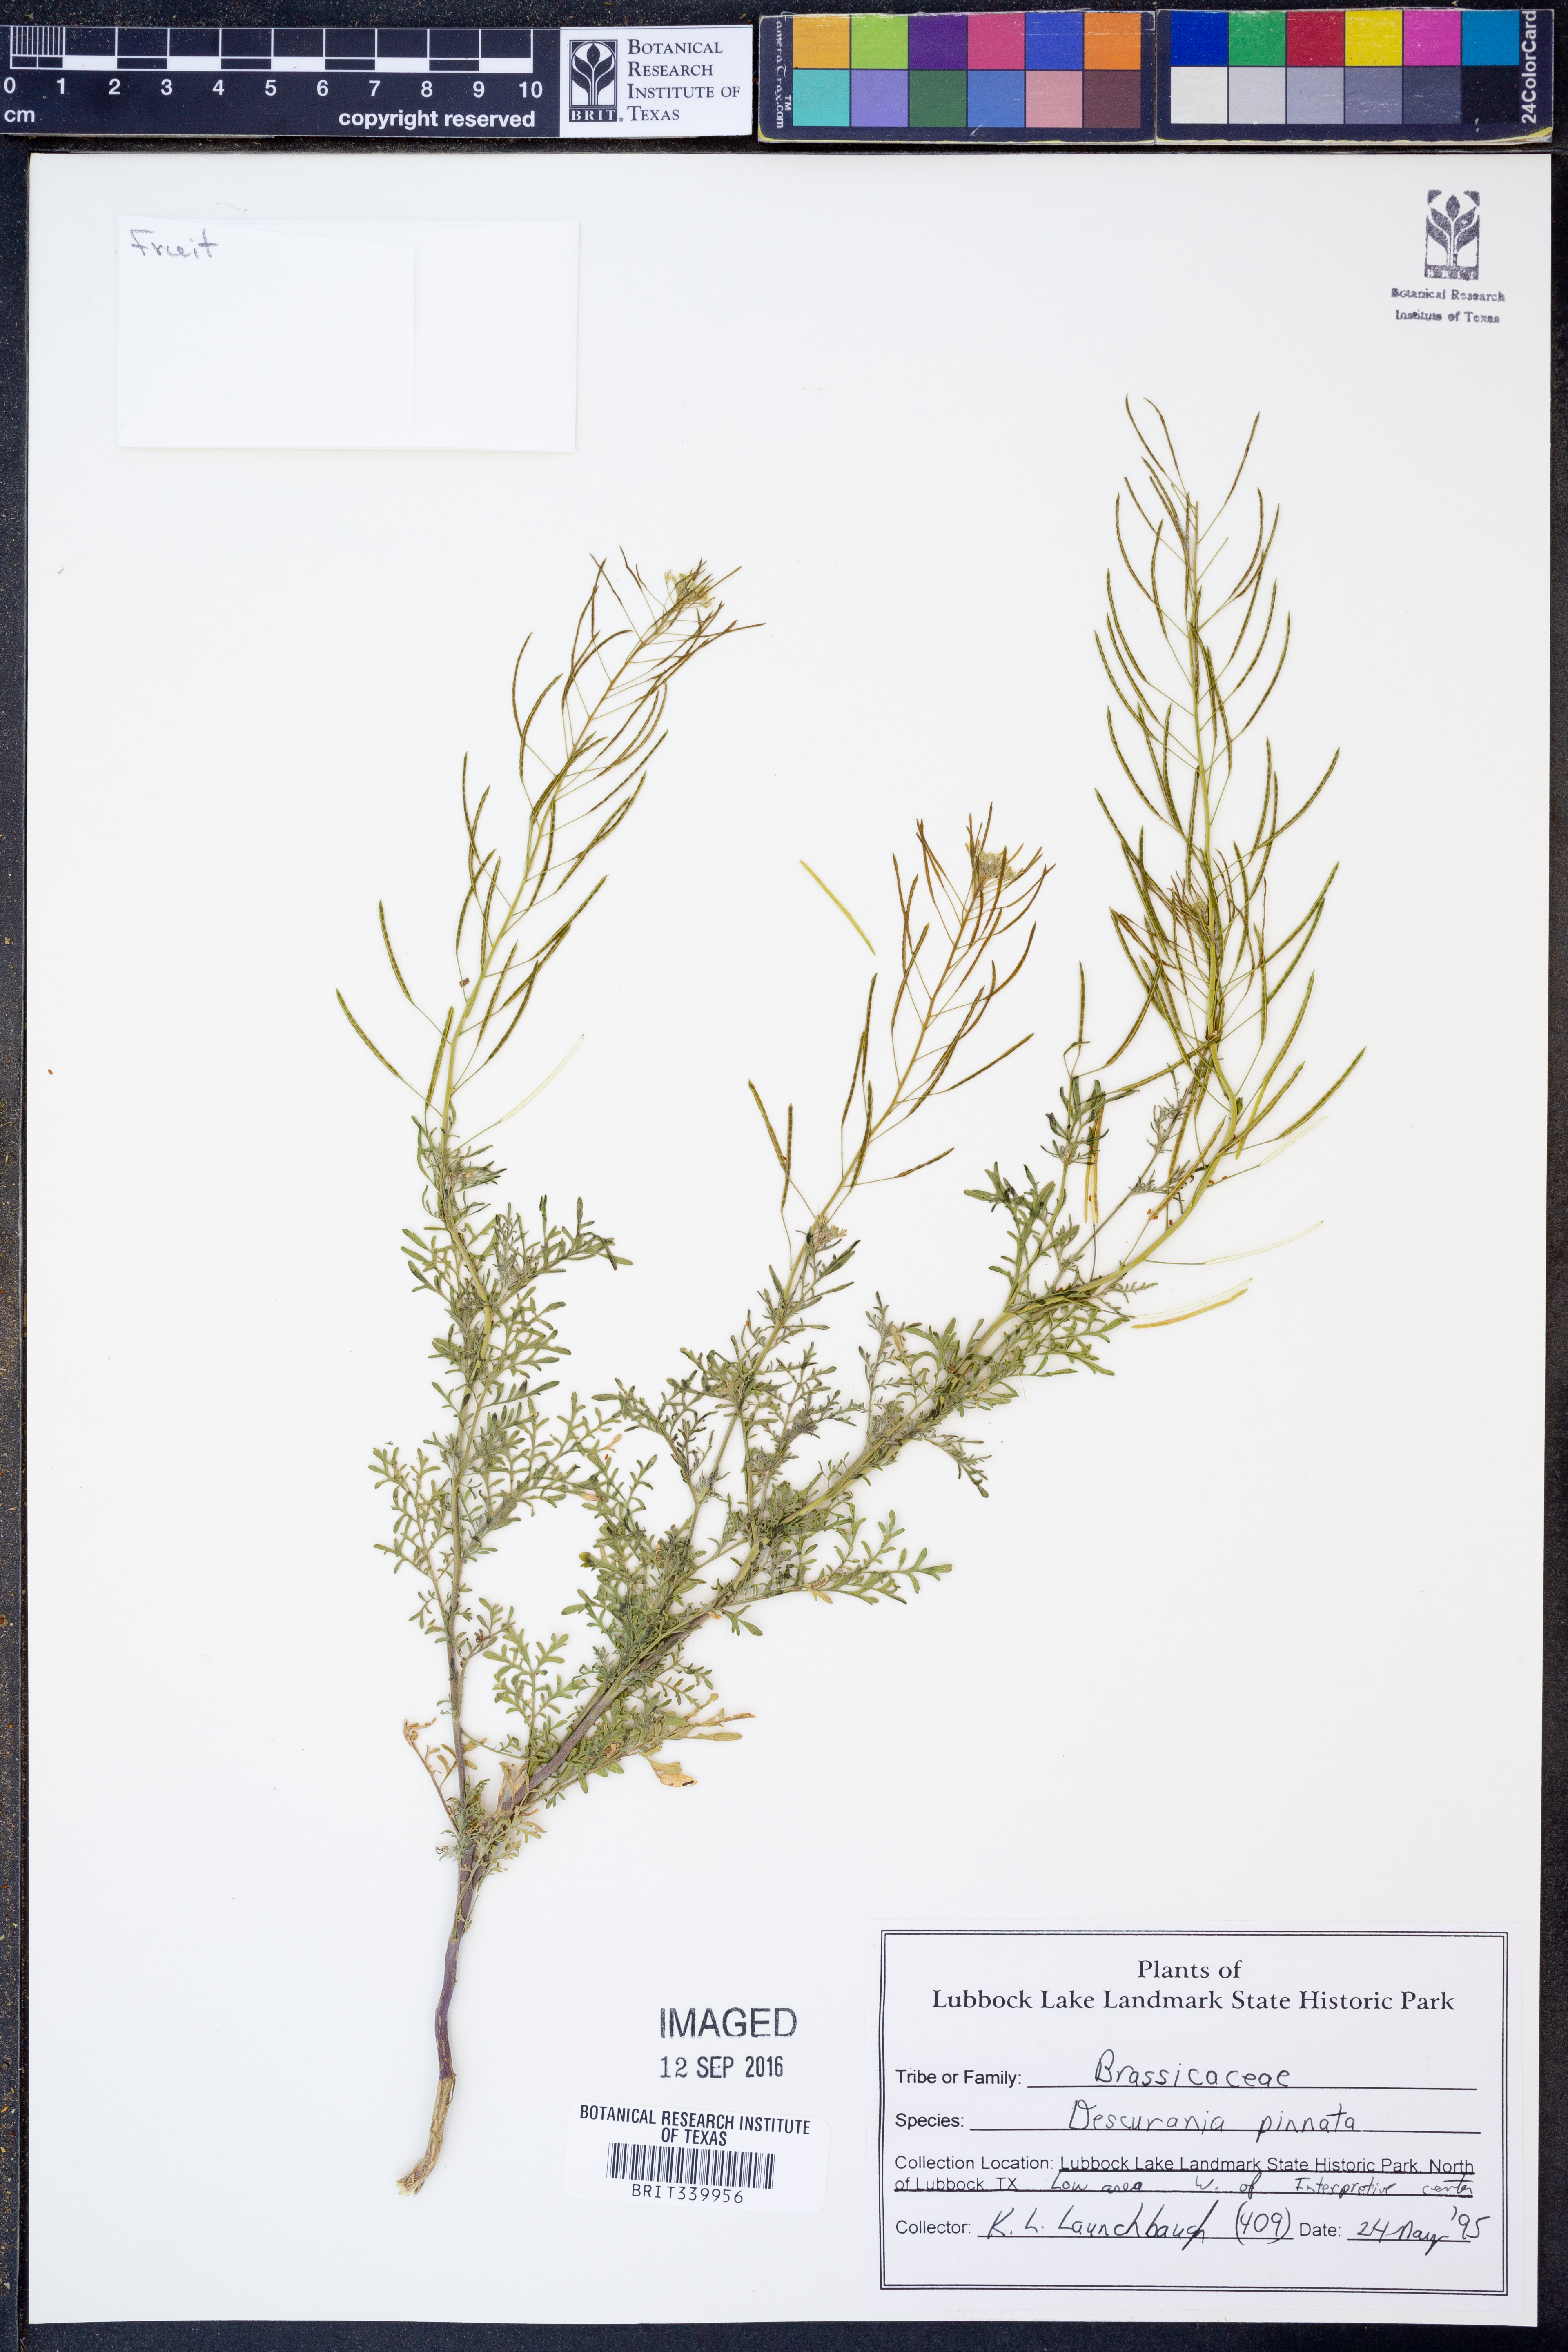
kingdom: Plantae
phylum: Tracheophyta
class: Magnoliopsida
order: Brassicales
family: Brassicaceae
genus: Descurainia
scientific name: Descurainia pinnata
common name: Western tansy mustard
